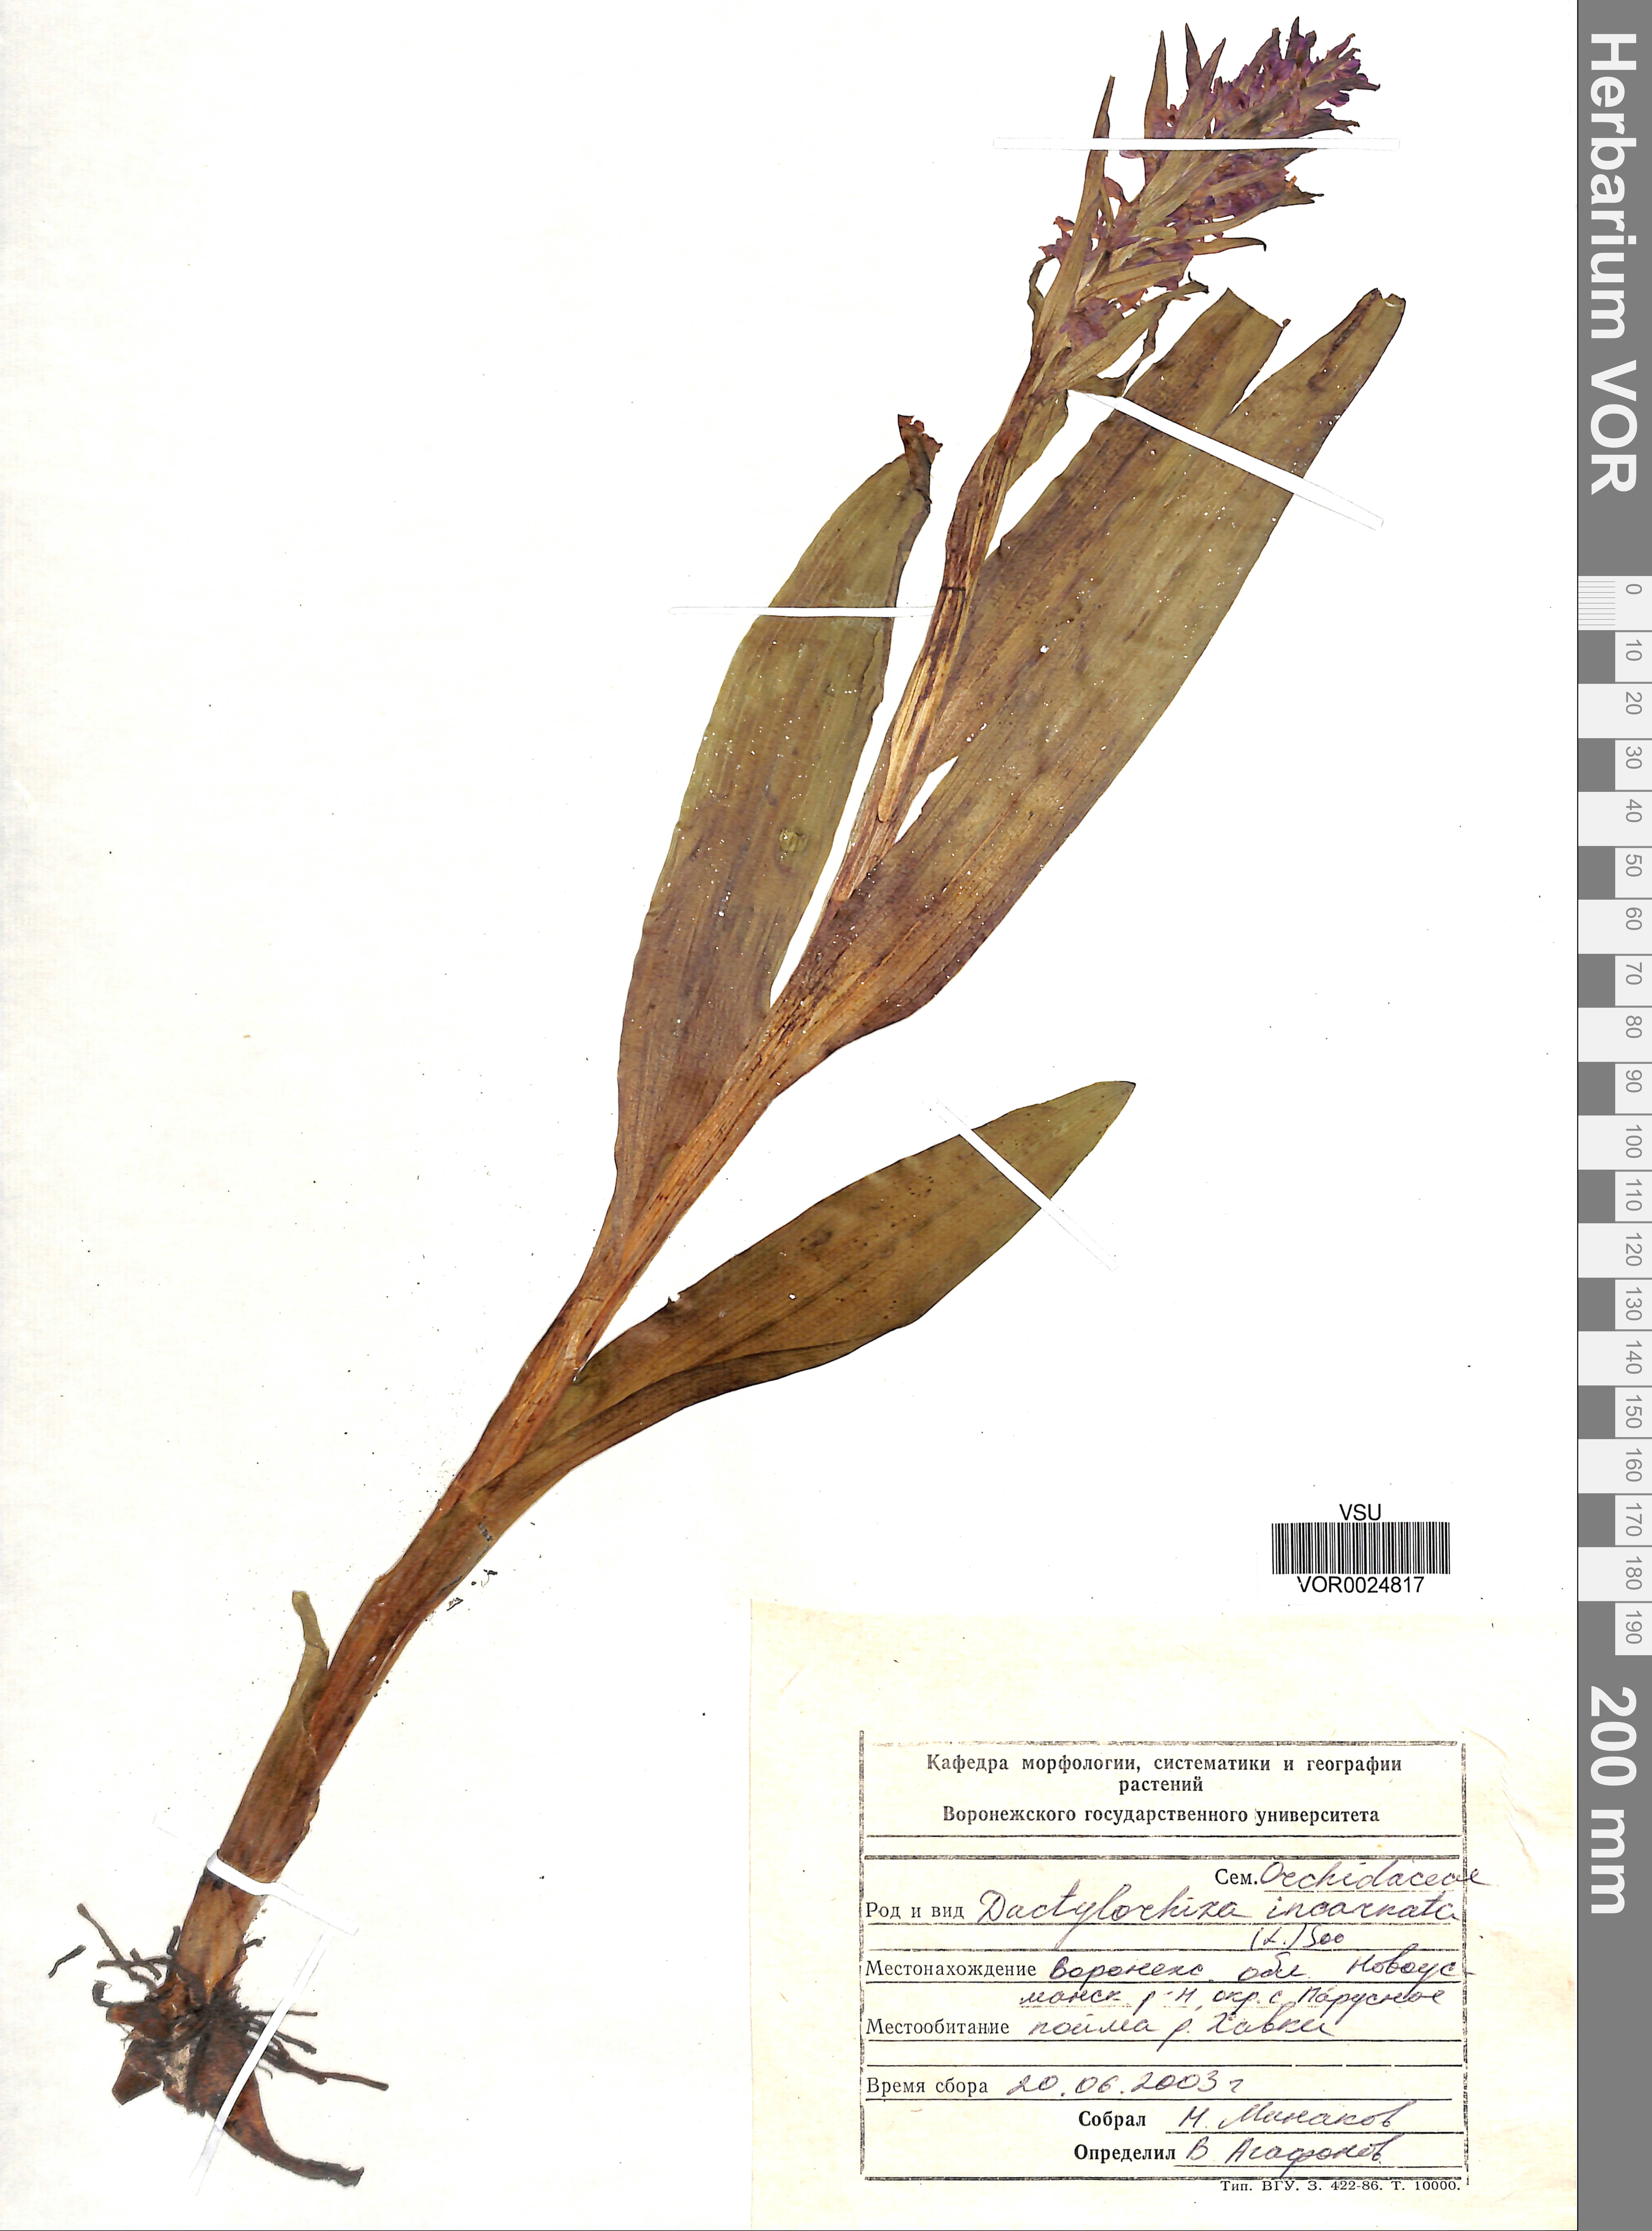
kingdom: Plantae
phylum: Tracheophyta
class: Liliopsida
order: Asparagales
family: Orchidaceae
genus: Dactylorhiza
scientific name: Dactylorhiza incarnata
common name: Early marsh-orchid
